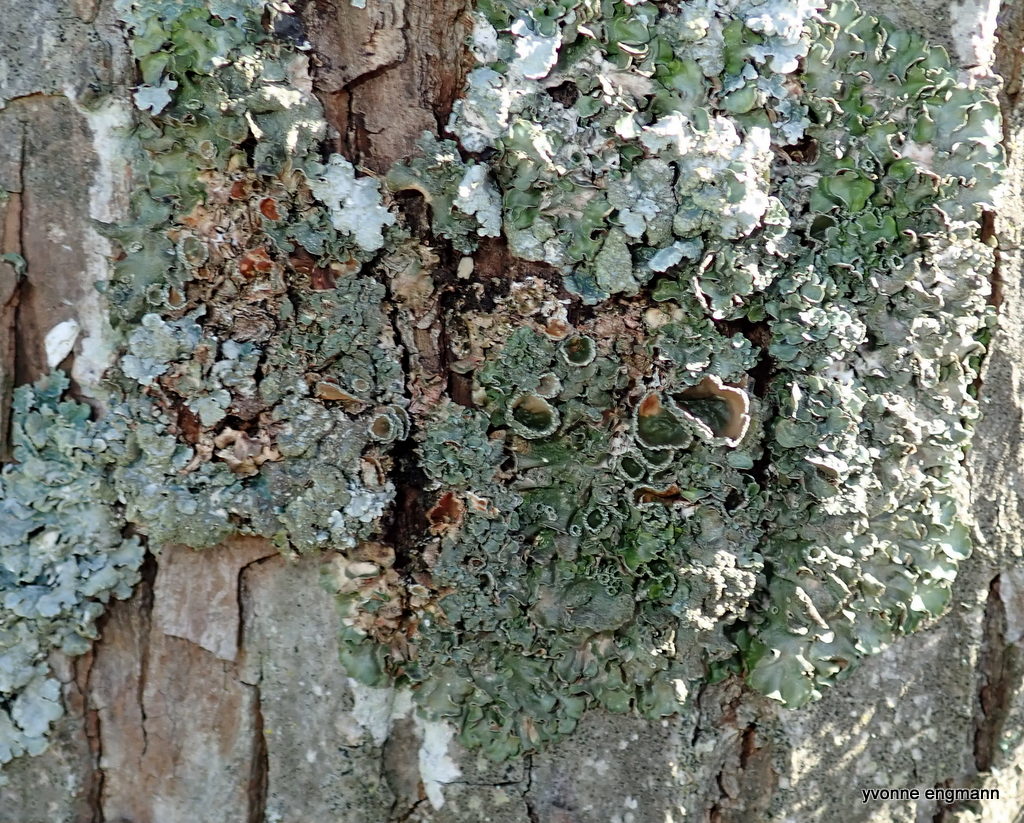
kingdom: Fungi
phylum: Ascomycota
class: Lecanoromycetes
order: Lecanorales
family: Parmeliaceae
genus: Pleurosticta
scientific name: Pleurosticta acetabulum
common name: stor skållav
